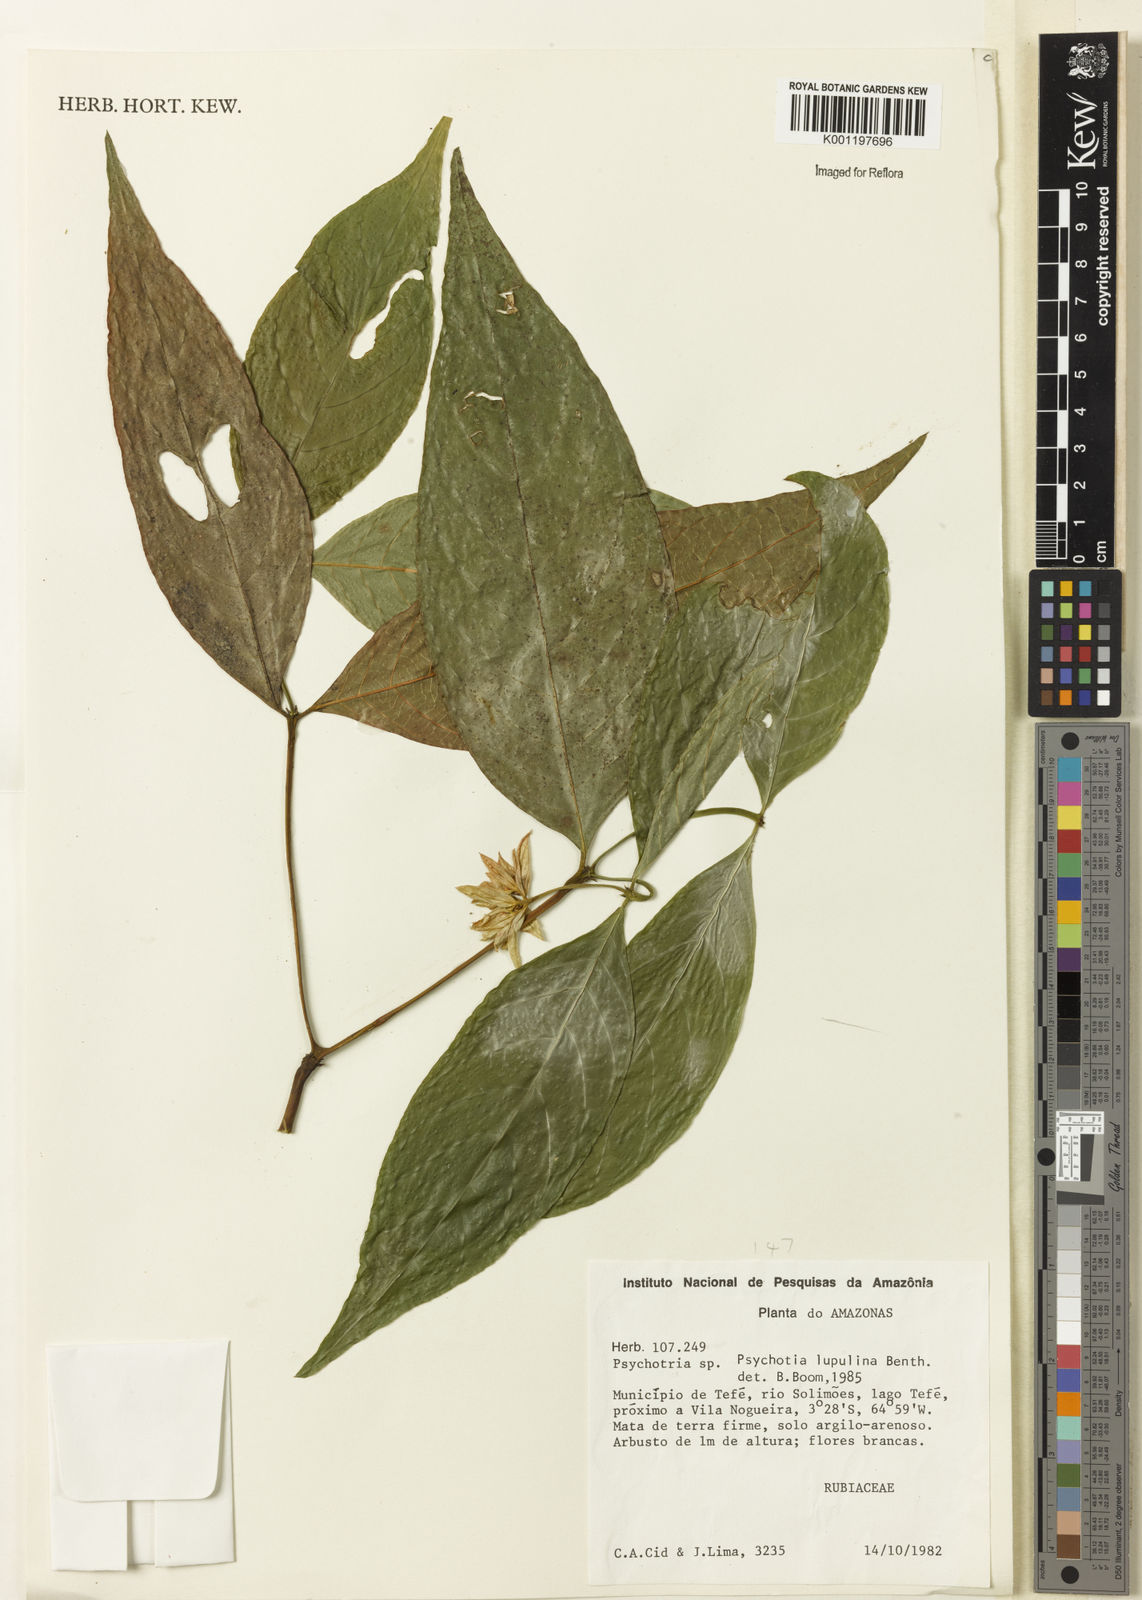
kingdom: Plantae
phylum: Tracheophyta
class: Magnoliopsida
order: Gentianales
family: Rubiaceae
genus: Palicourea
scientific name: Palicourea justiciifolia
